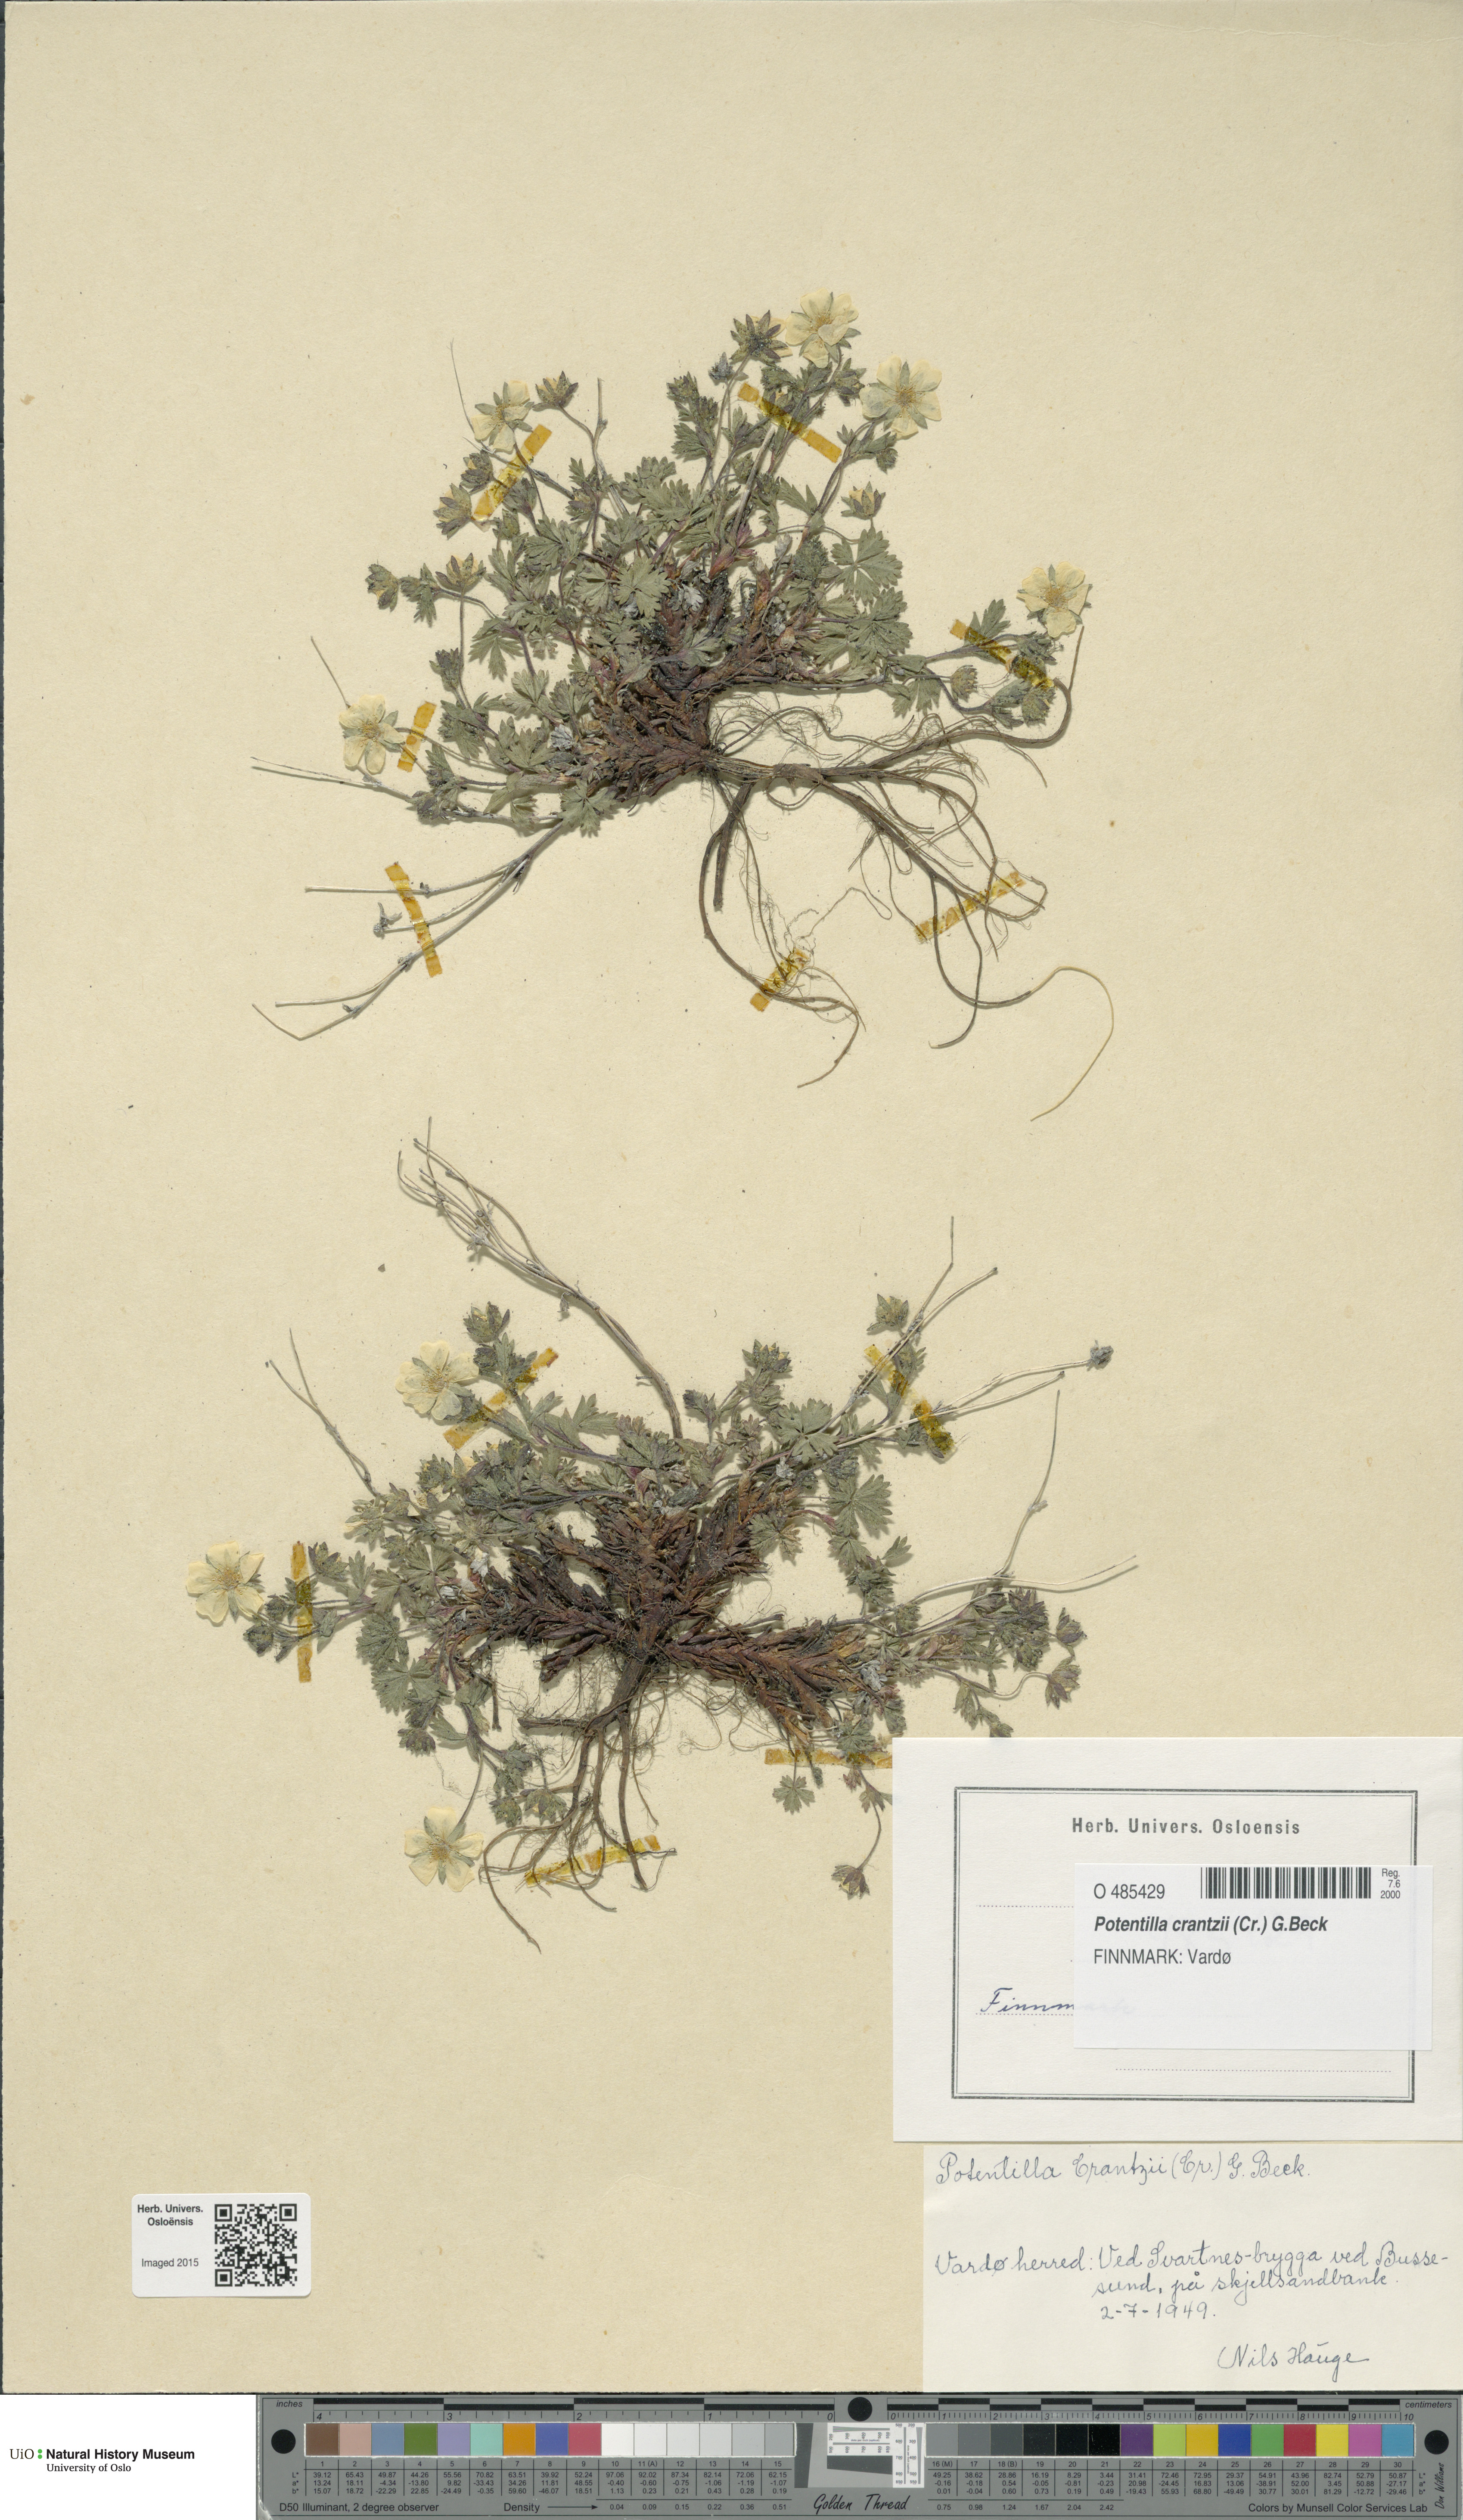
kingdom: Plantae
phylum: Tracheophyta
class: Magnoliopsida
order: Rosales
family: Rosaceae
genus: Potentilla
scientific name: Potentilla crantzii
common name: Alpine cinquefoil
